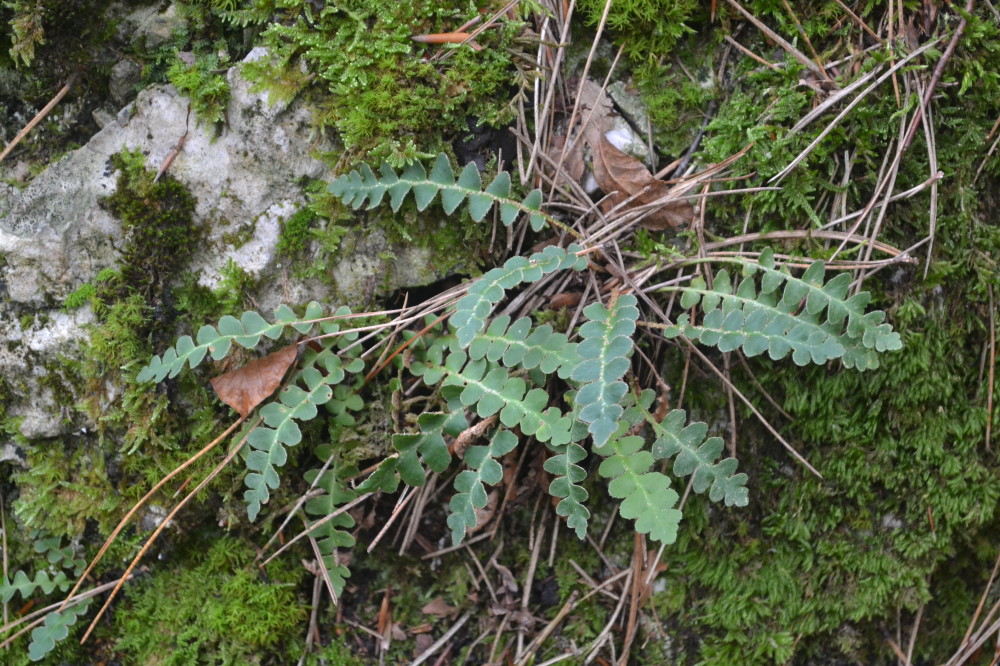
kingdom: Plantae
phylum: Tracheophyta
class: Polypodiopsida
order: Polypodiales
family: Aspleniaceae
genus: Asplenium
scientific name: Asplenium ceterach
